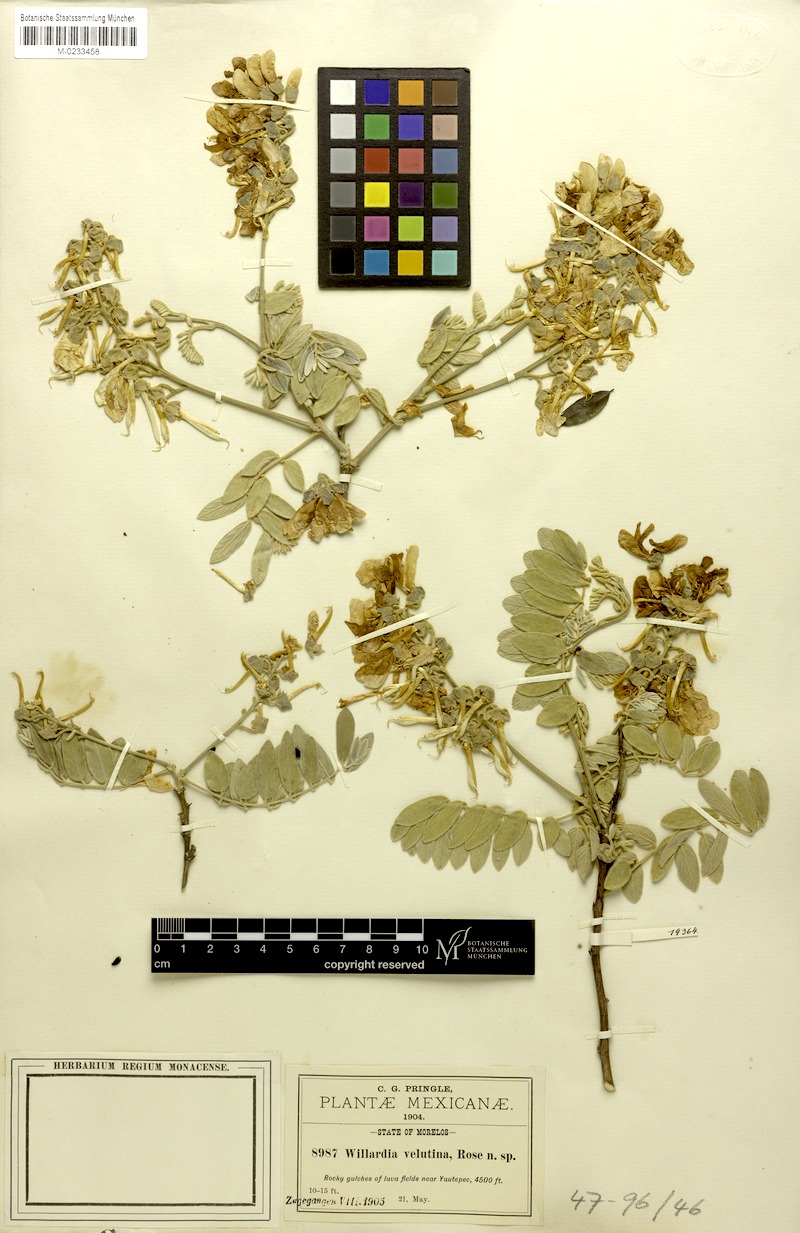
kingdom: Plantae
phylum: Tracheophyta
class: Magnoliopsida
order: Fabales
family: Fabaceae
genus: Lonchocarpus
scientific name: Lonchocarpus eriophyllus
